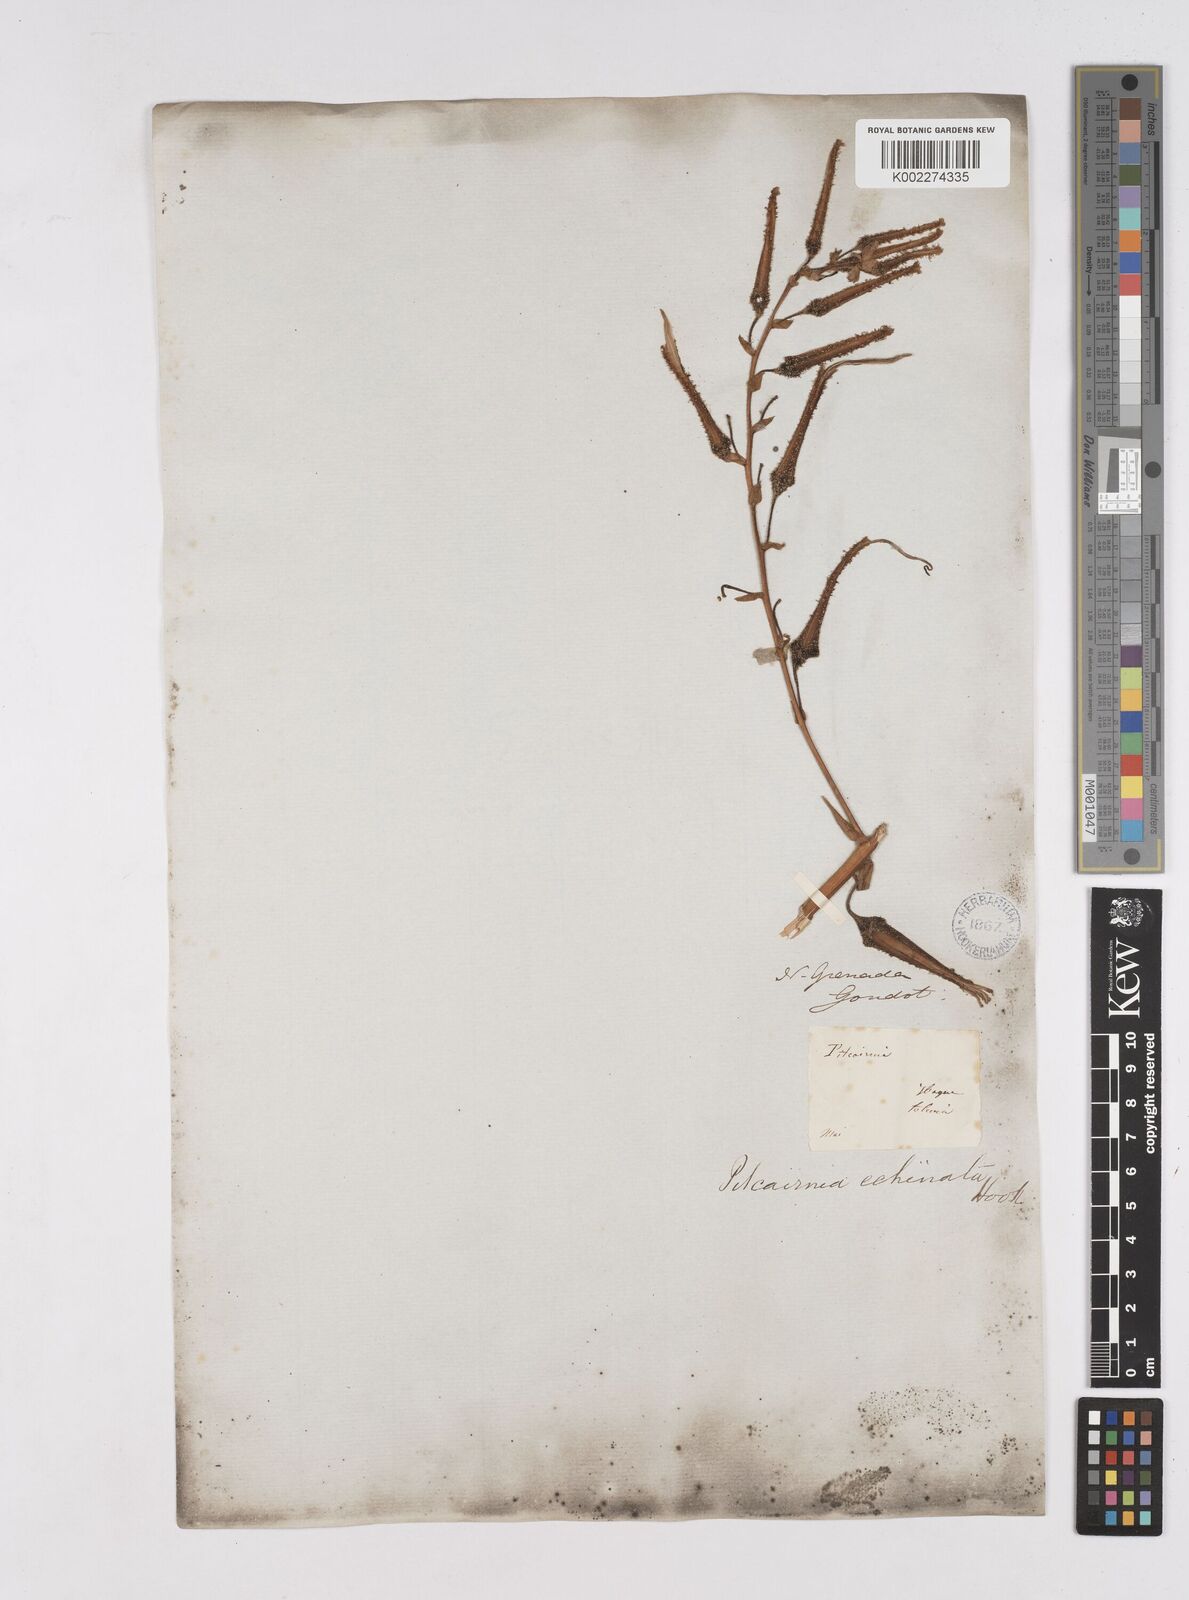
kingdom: Plantae
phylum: Tracheophyta
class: Liliopsida
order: Poales
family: Bromeliaceae
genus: Pitcairnia
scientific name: Pitcairnia echinata
